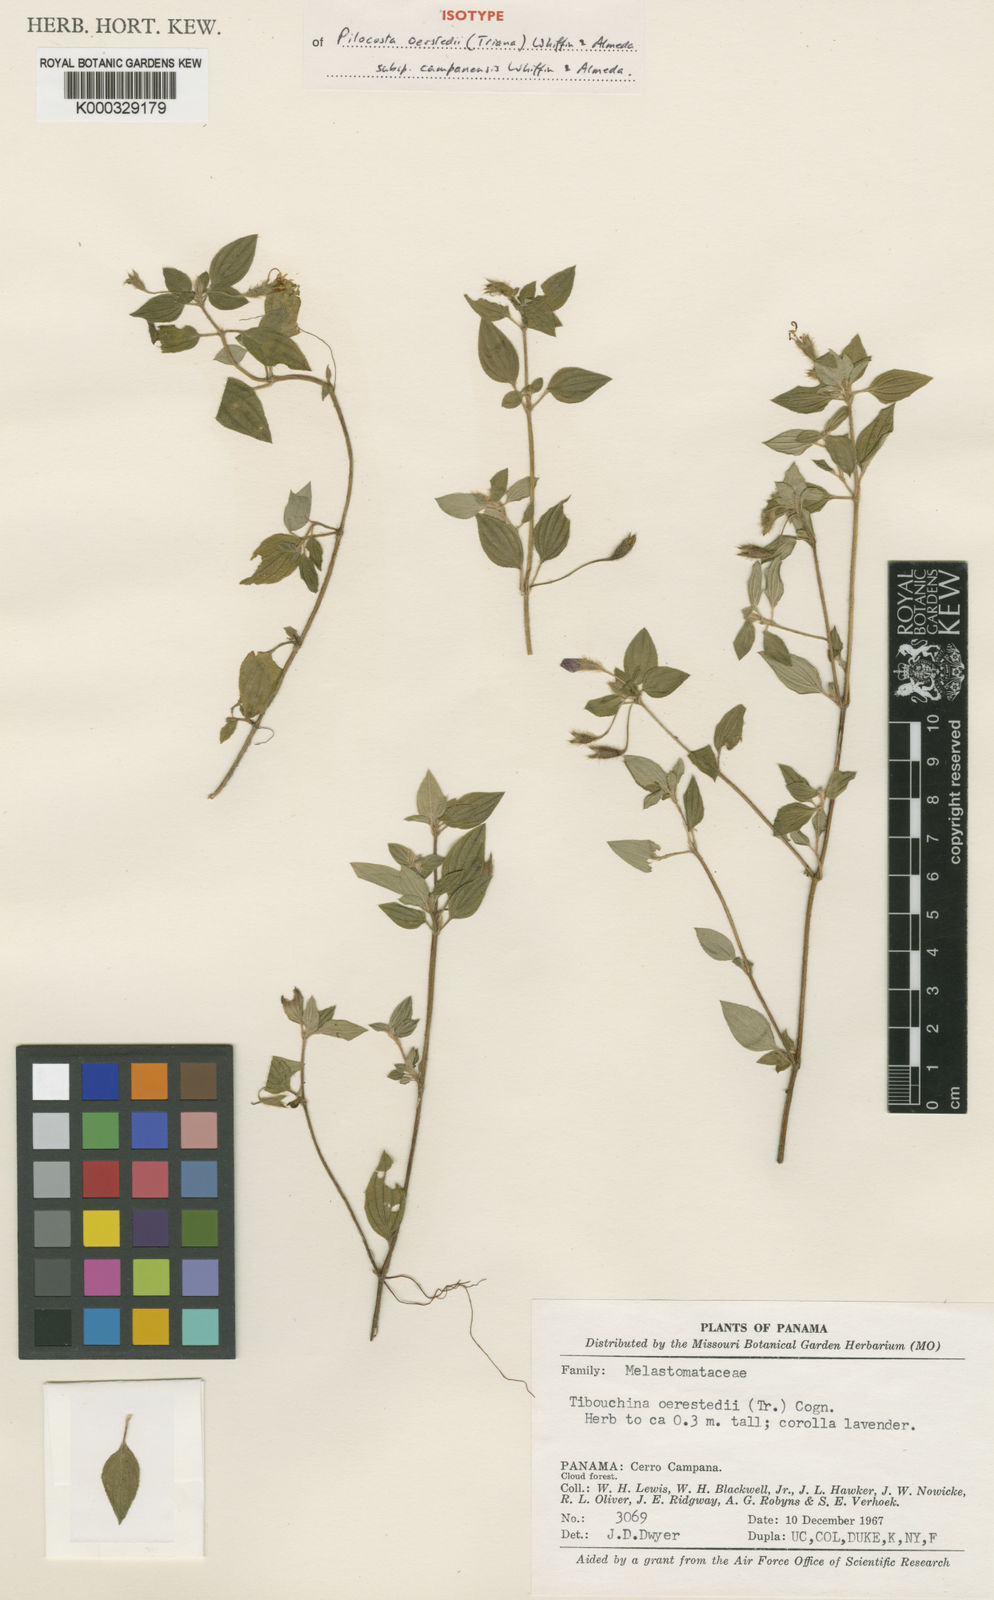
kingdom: Plantae
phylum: Tracheophyta
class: Magnoliopsida
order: Myrtales
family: Melastomataceae
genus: Pilocosta
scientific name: Pilocosta campanensis
